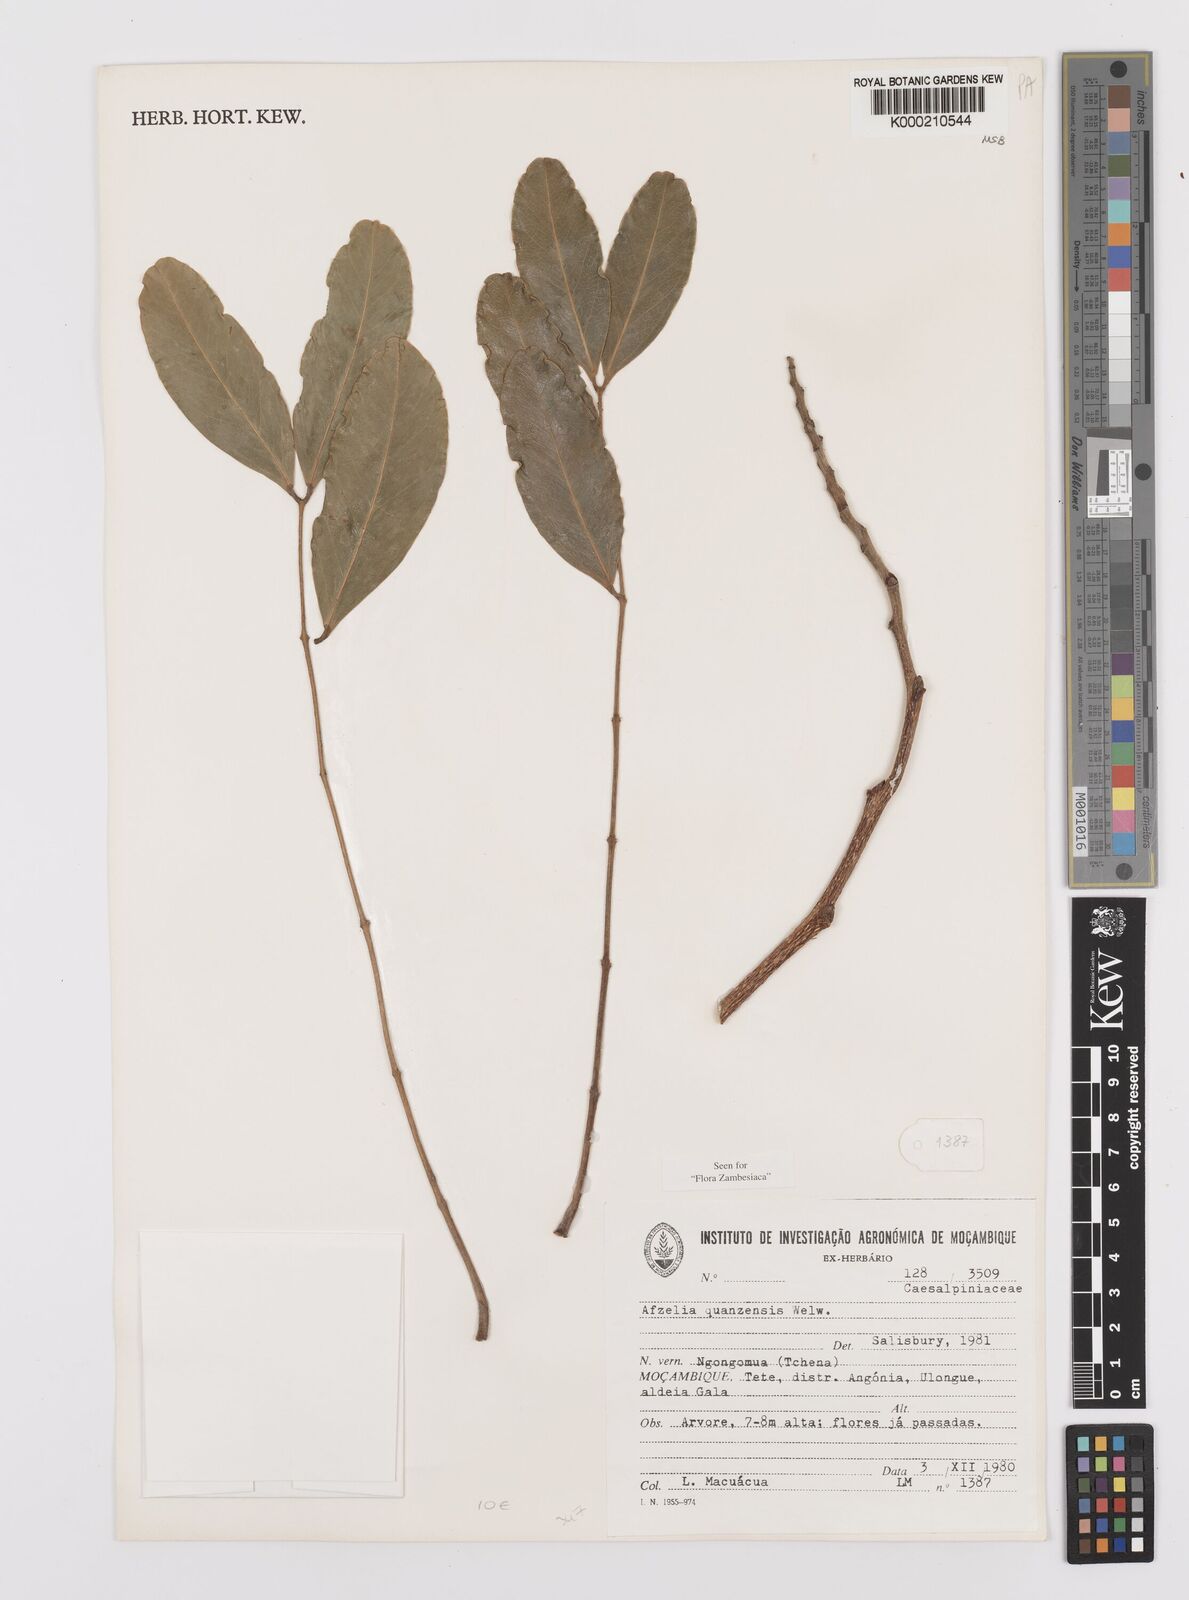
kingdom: Plantae
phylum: Tracheophyta
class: Magnoliopsida
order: Fabales
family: Fabaceae
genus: Afzelia
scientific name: Afzelia quanzensis
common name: Pod mahogany
